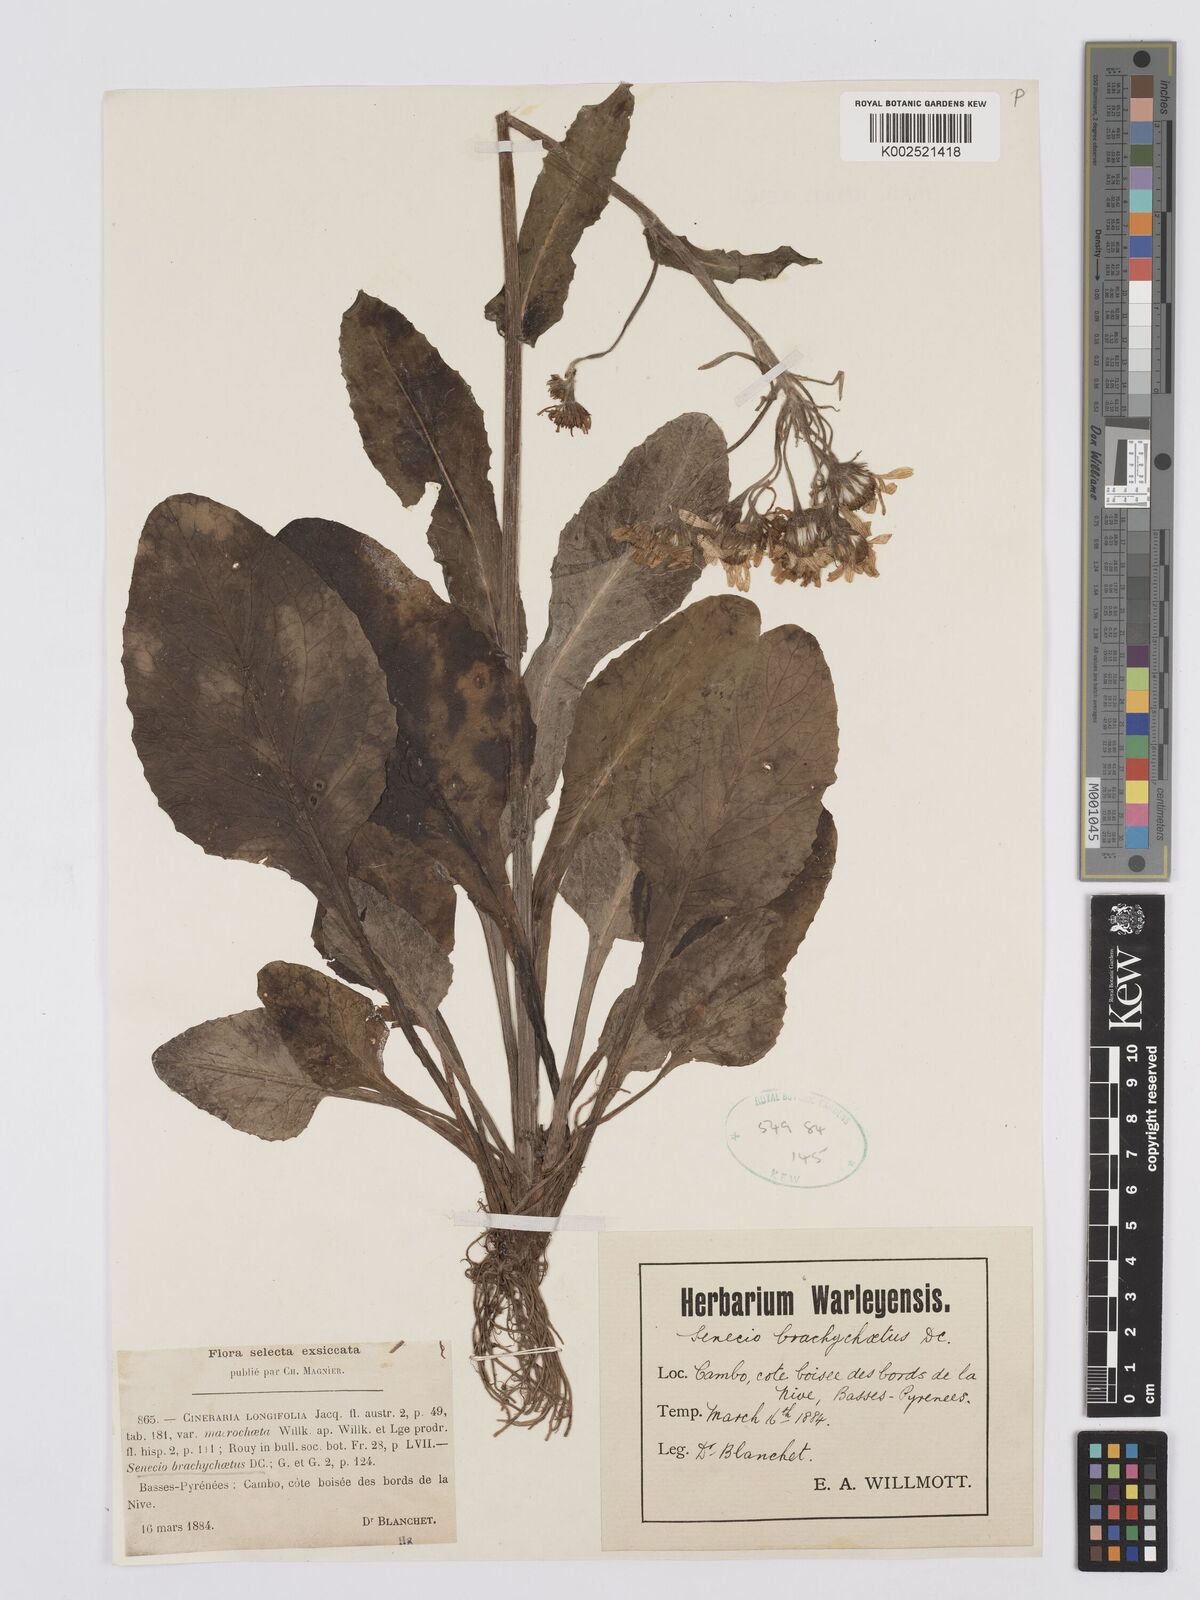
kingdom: Plantae
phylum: Tracheophyta
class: Magnoliopsida
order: Asterales
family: Asteraceae
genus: Tephroseris
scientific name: Tephroseris
